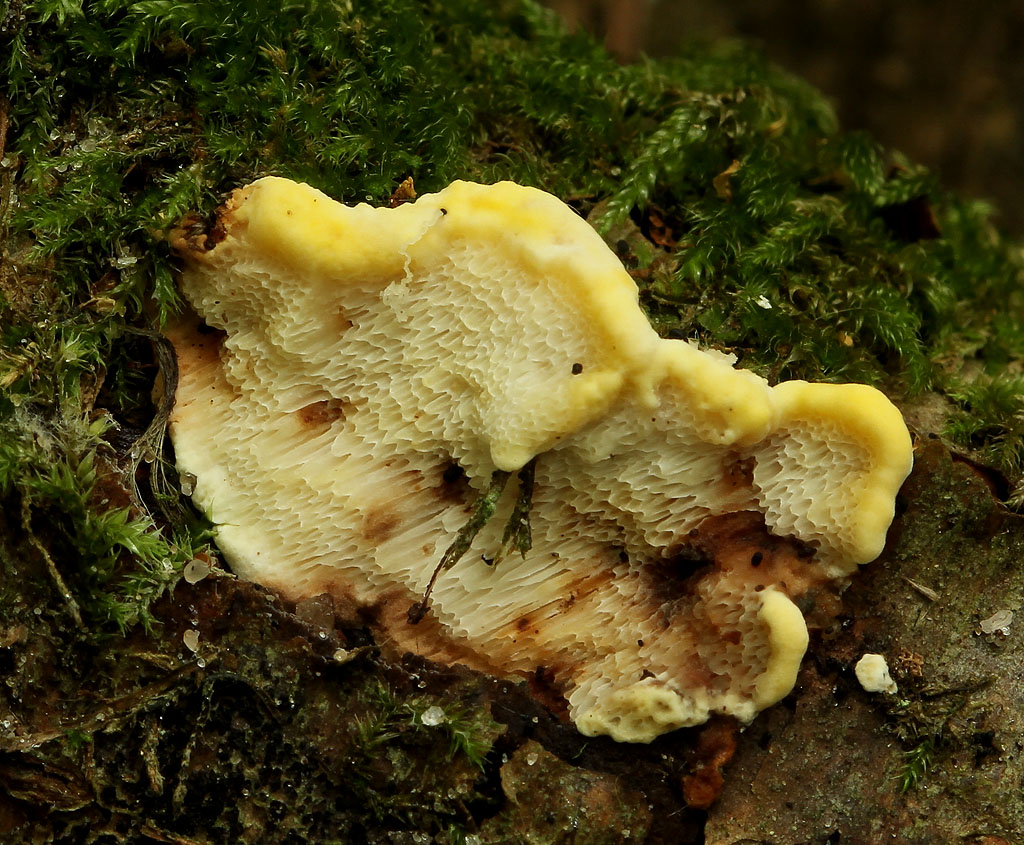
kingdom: Fungi
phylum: Basidiomycota
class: Agaricomycetes
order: Polyporales
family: Steccherinaceae
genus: Antrodiella
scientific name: Antrodiella serpula
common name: gulrandet elastikporesvamp
